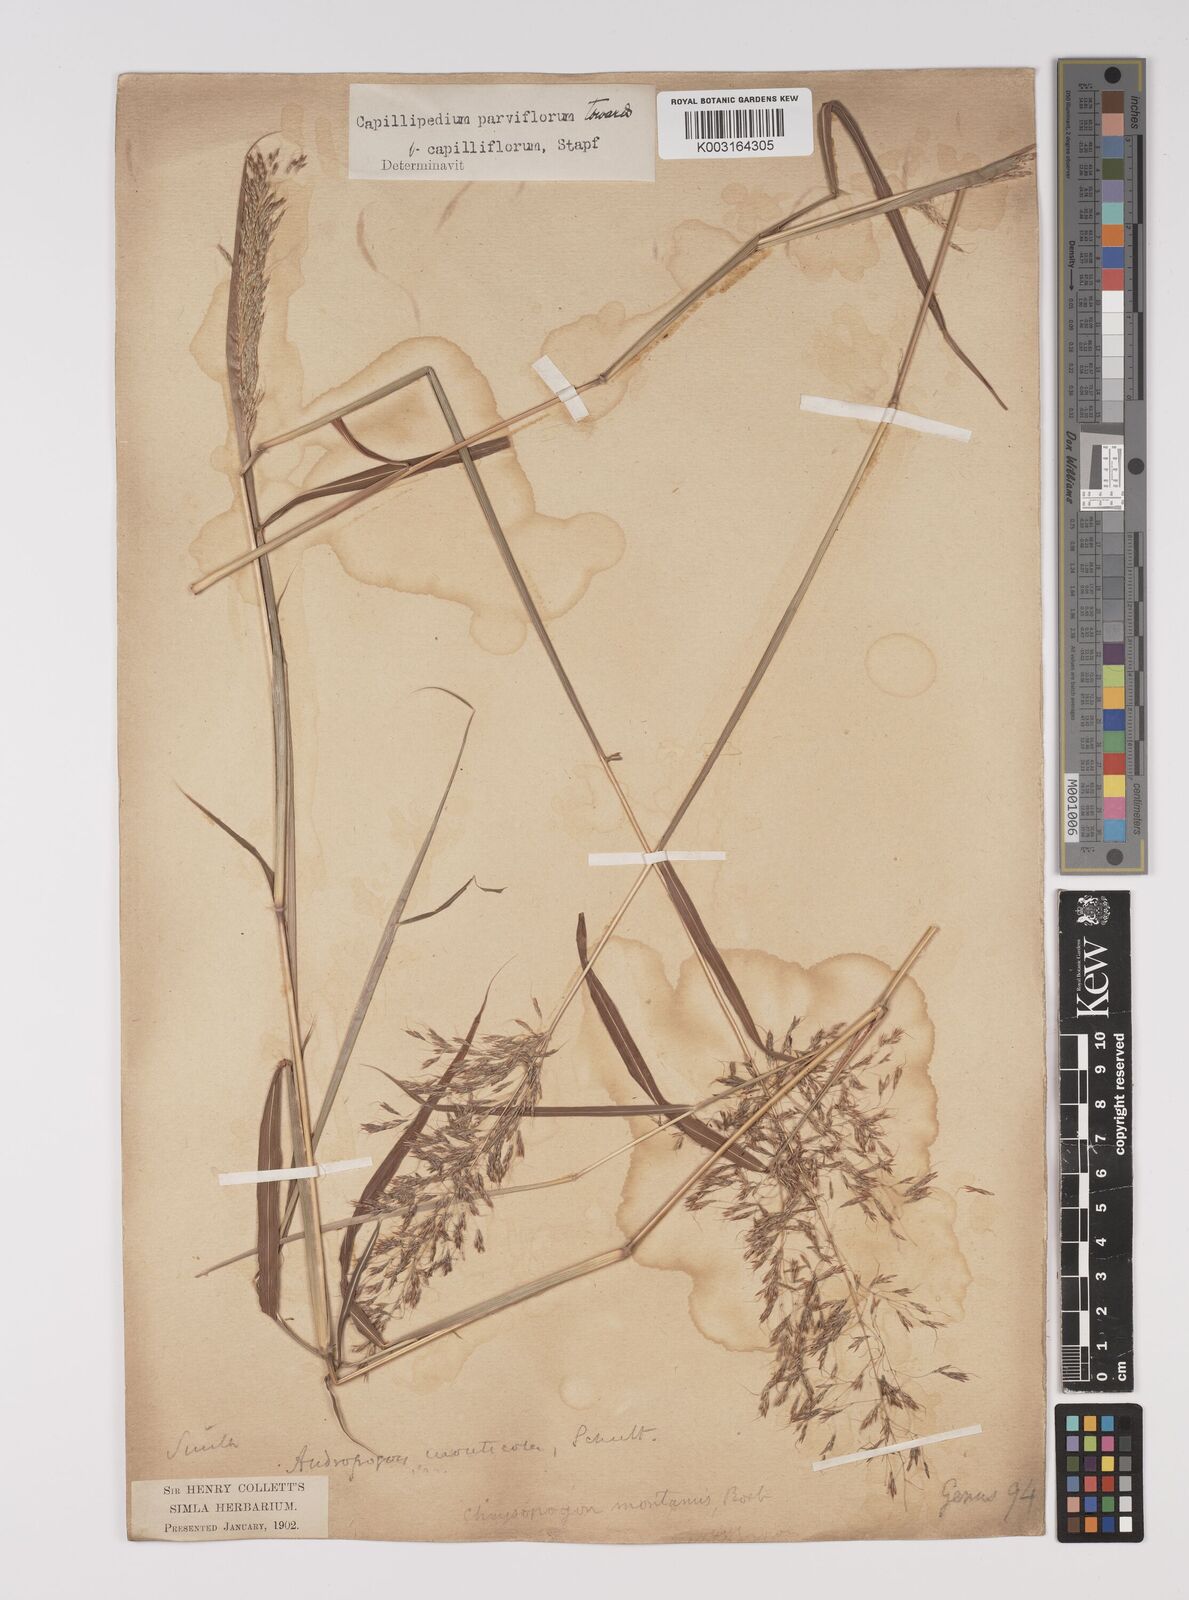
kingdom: Plantae
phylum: Tracheophyta
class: Liliopsida
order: Poales
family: Poaceae
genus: Capillipedium
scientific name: Capillipedium parviflorum
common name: Golden-beard
